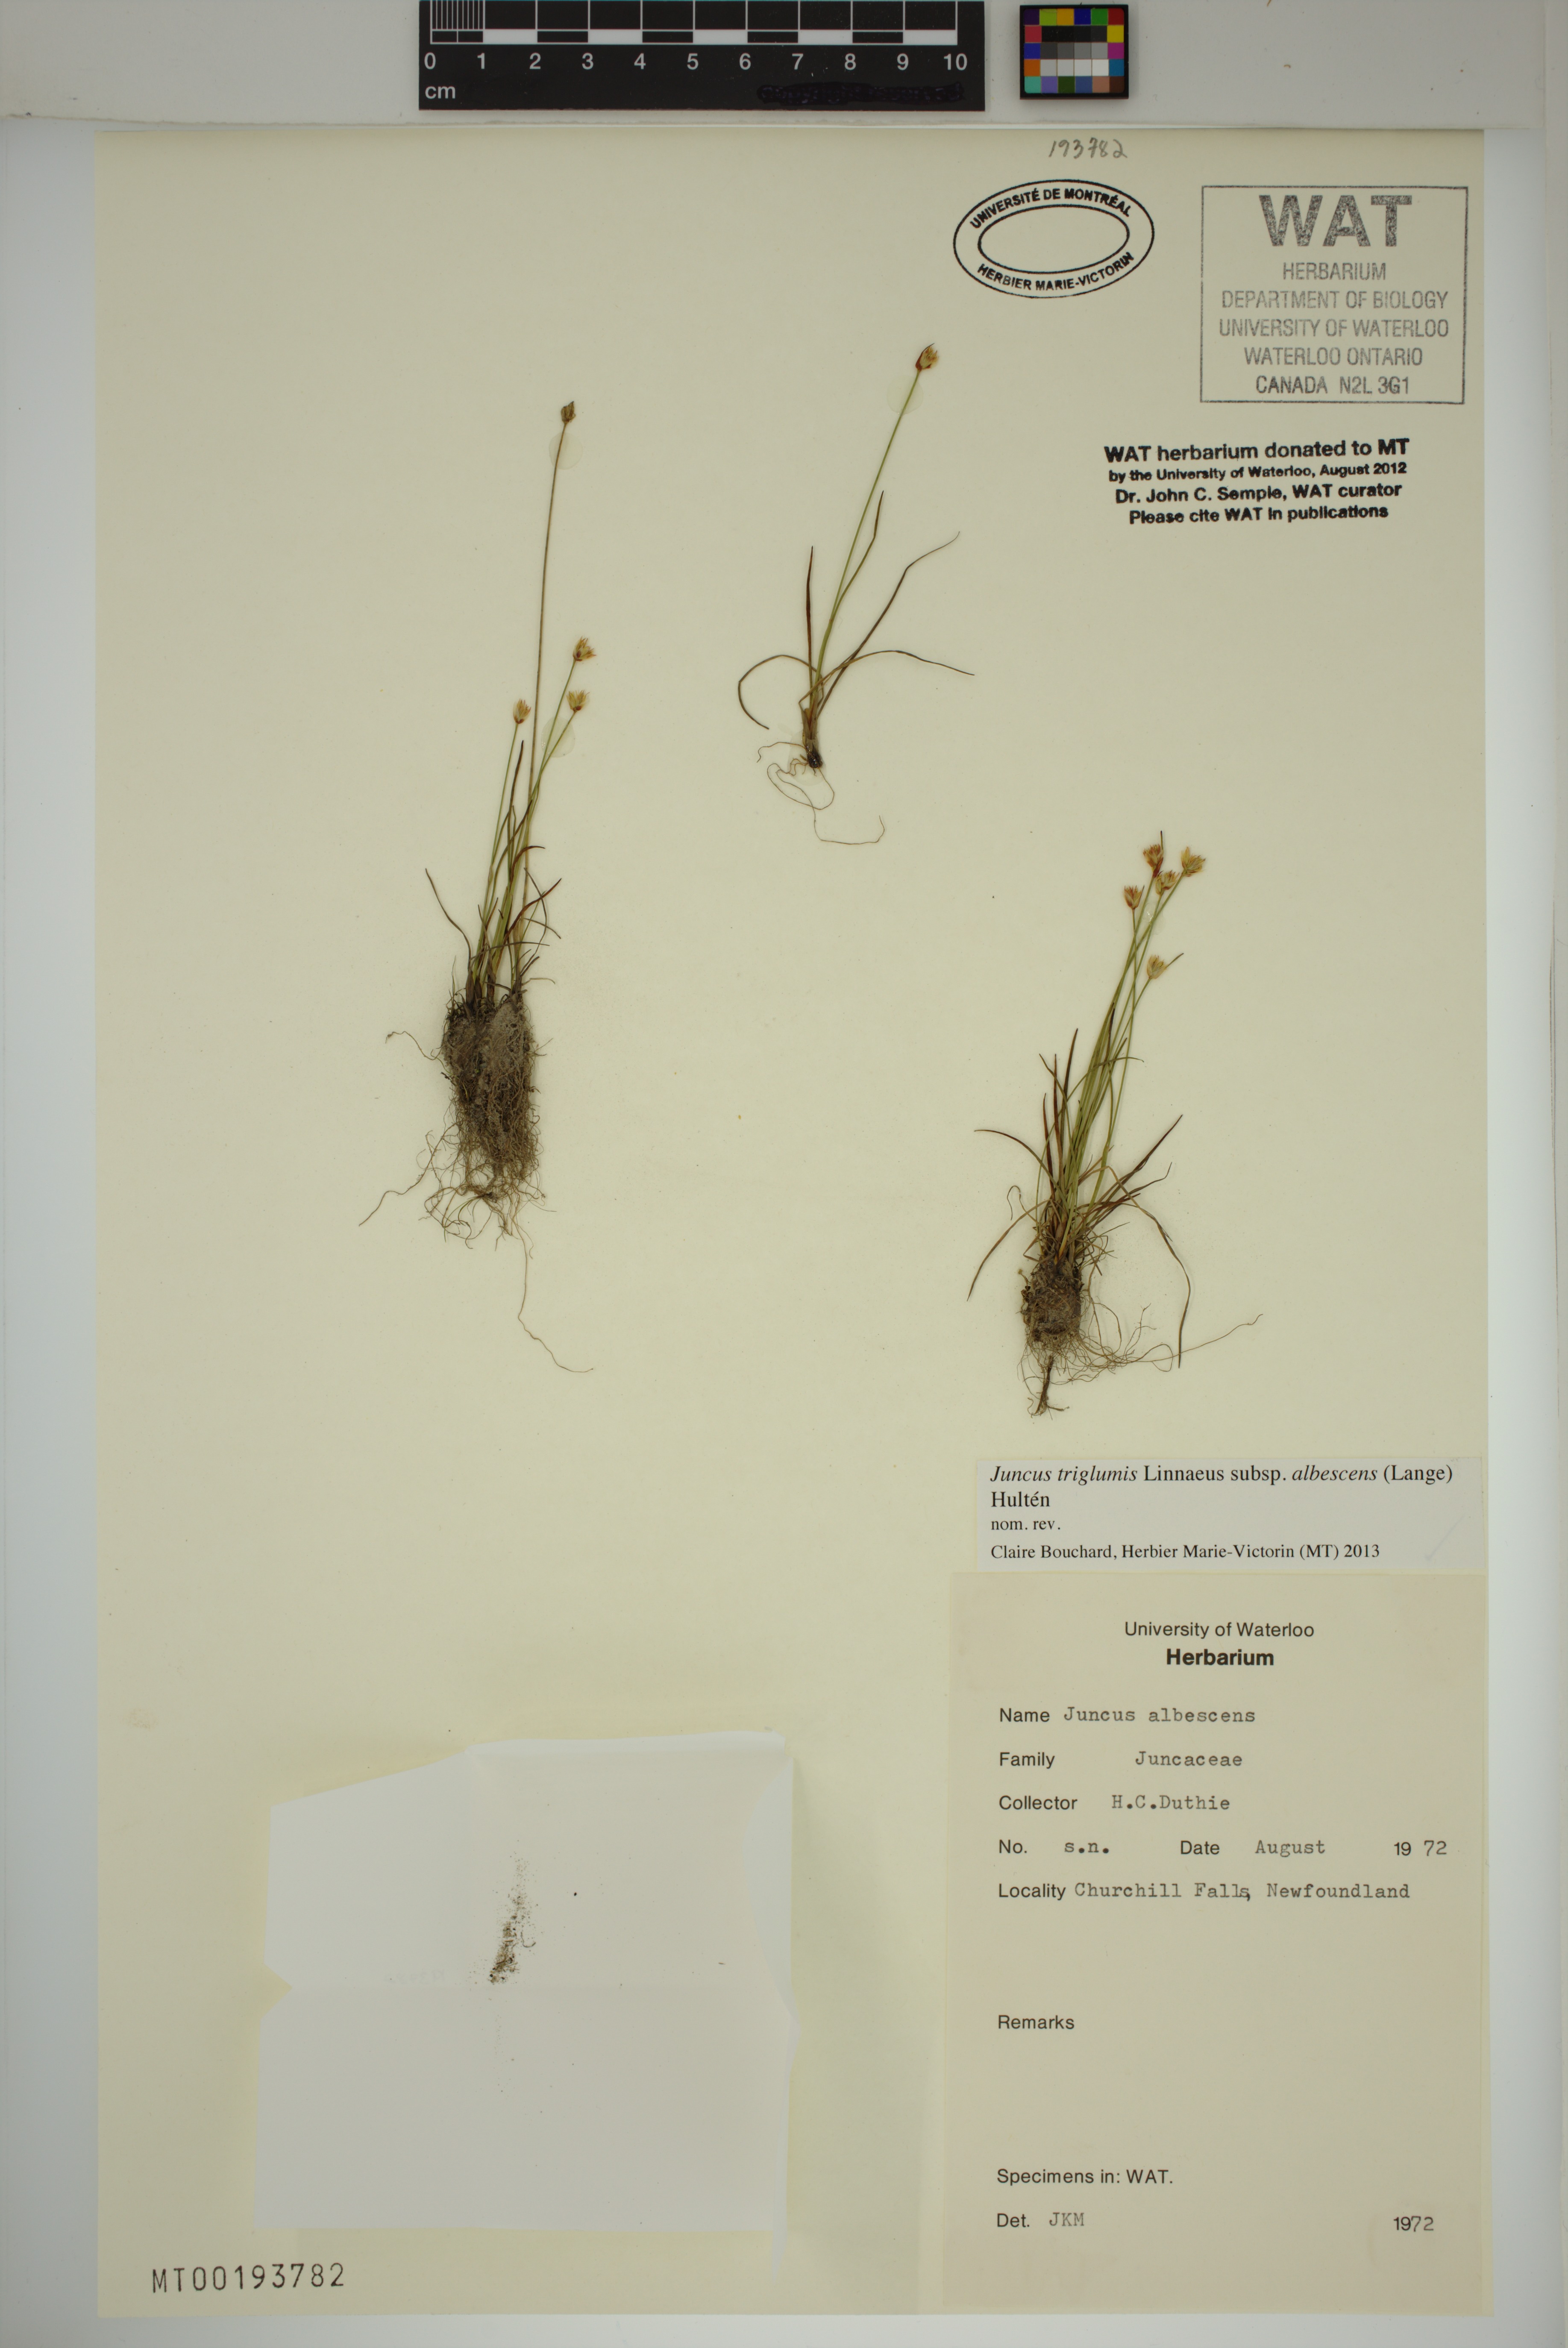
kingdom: Plantae
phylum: Tracheophyta
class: Liliopsida
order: Poales
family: Juncaceae
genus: Juncus
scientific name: Juncus albescens
